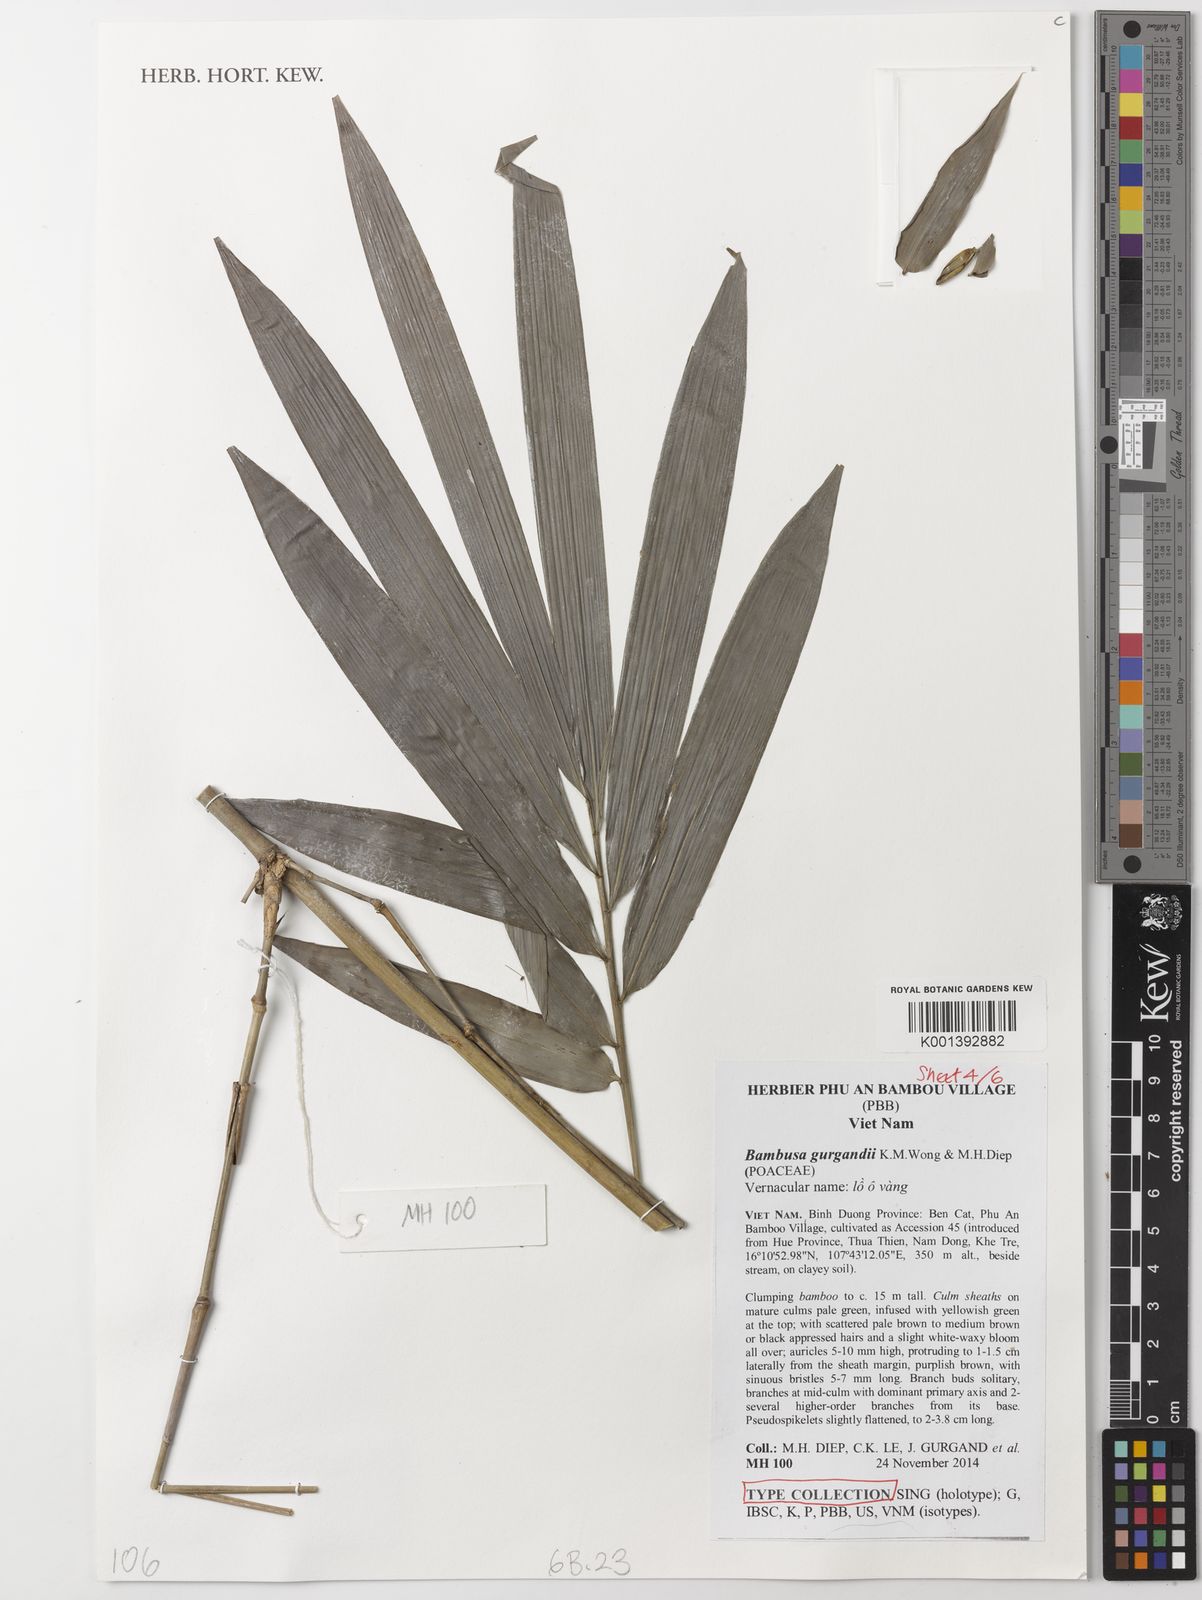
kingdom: Plantae
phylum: Tracheophyta
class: Liliopsida
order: Poales
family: Poaceae
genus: Bambusa
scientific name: Bambusa gurgandii
